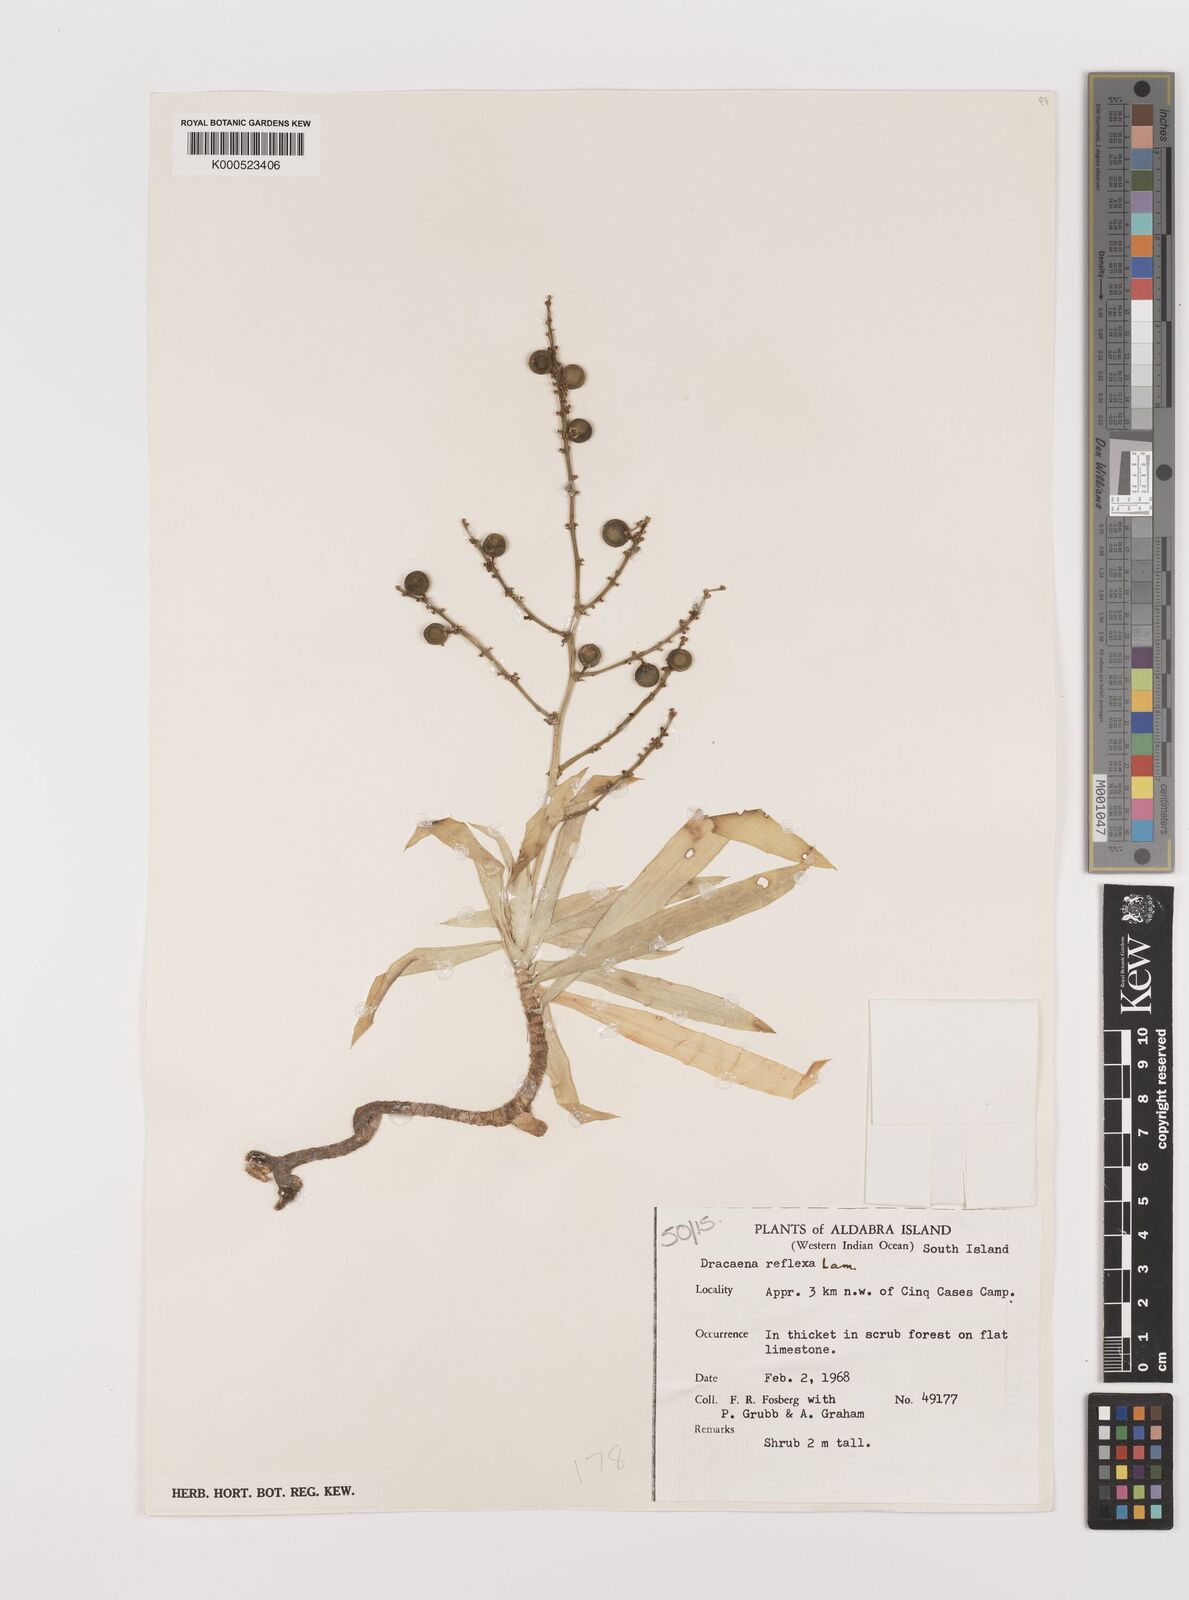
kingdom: Plantae
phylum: Tracheophyta
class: Liliopsida
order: Asparagales
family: Asparagaceae
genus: Dracaena
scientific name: Dracaena reflexa
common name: Song-of-india
